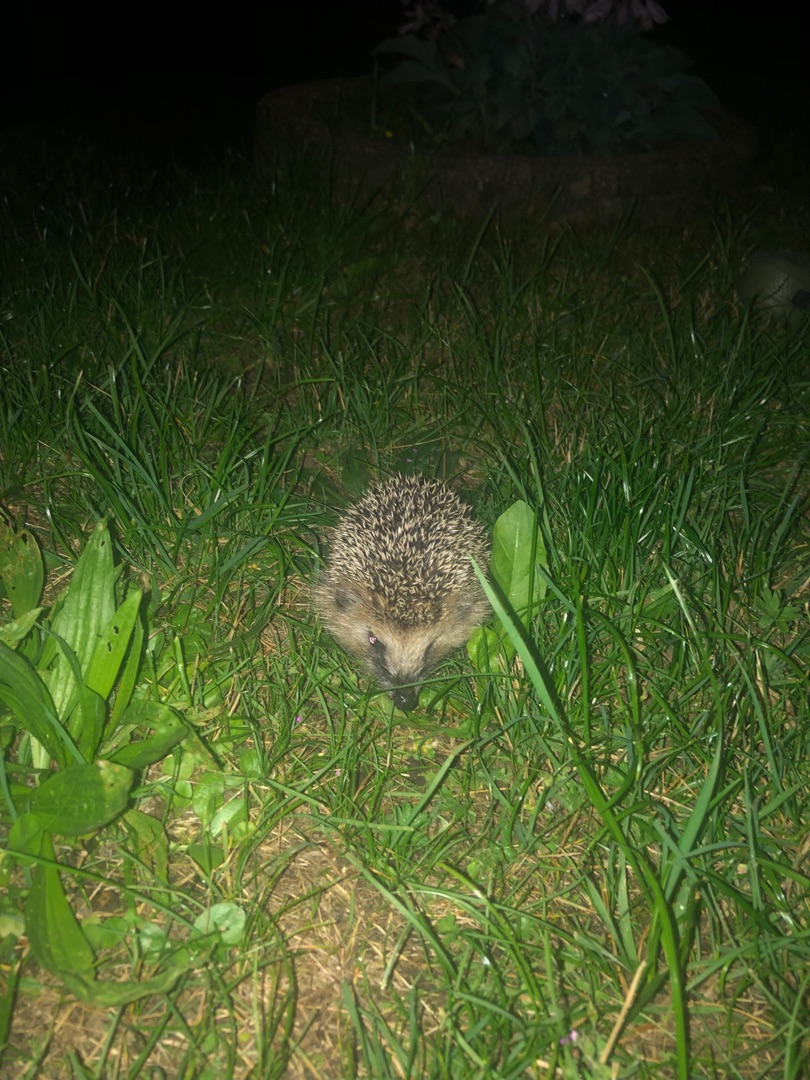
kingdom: Animalia
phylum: Chordata
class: Mammalia
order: Erinaceomorpha
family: Erinaceidae
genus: Erinaceus
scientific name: Erinaceus europaeus
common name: Pindsvin
